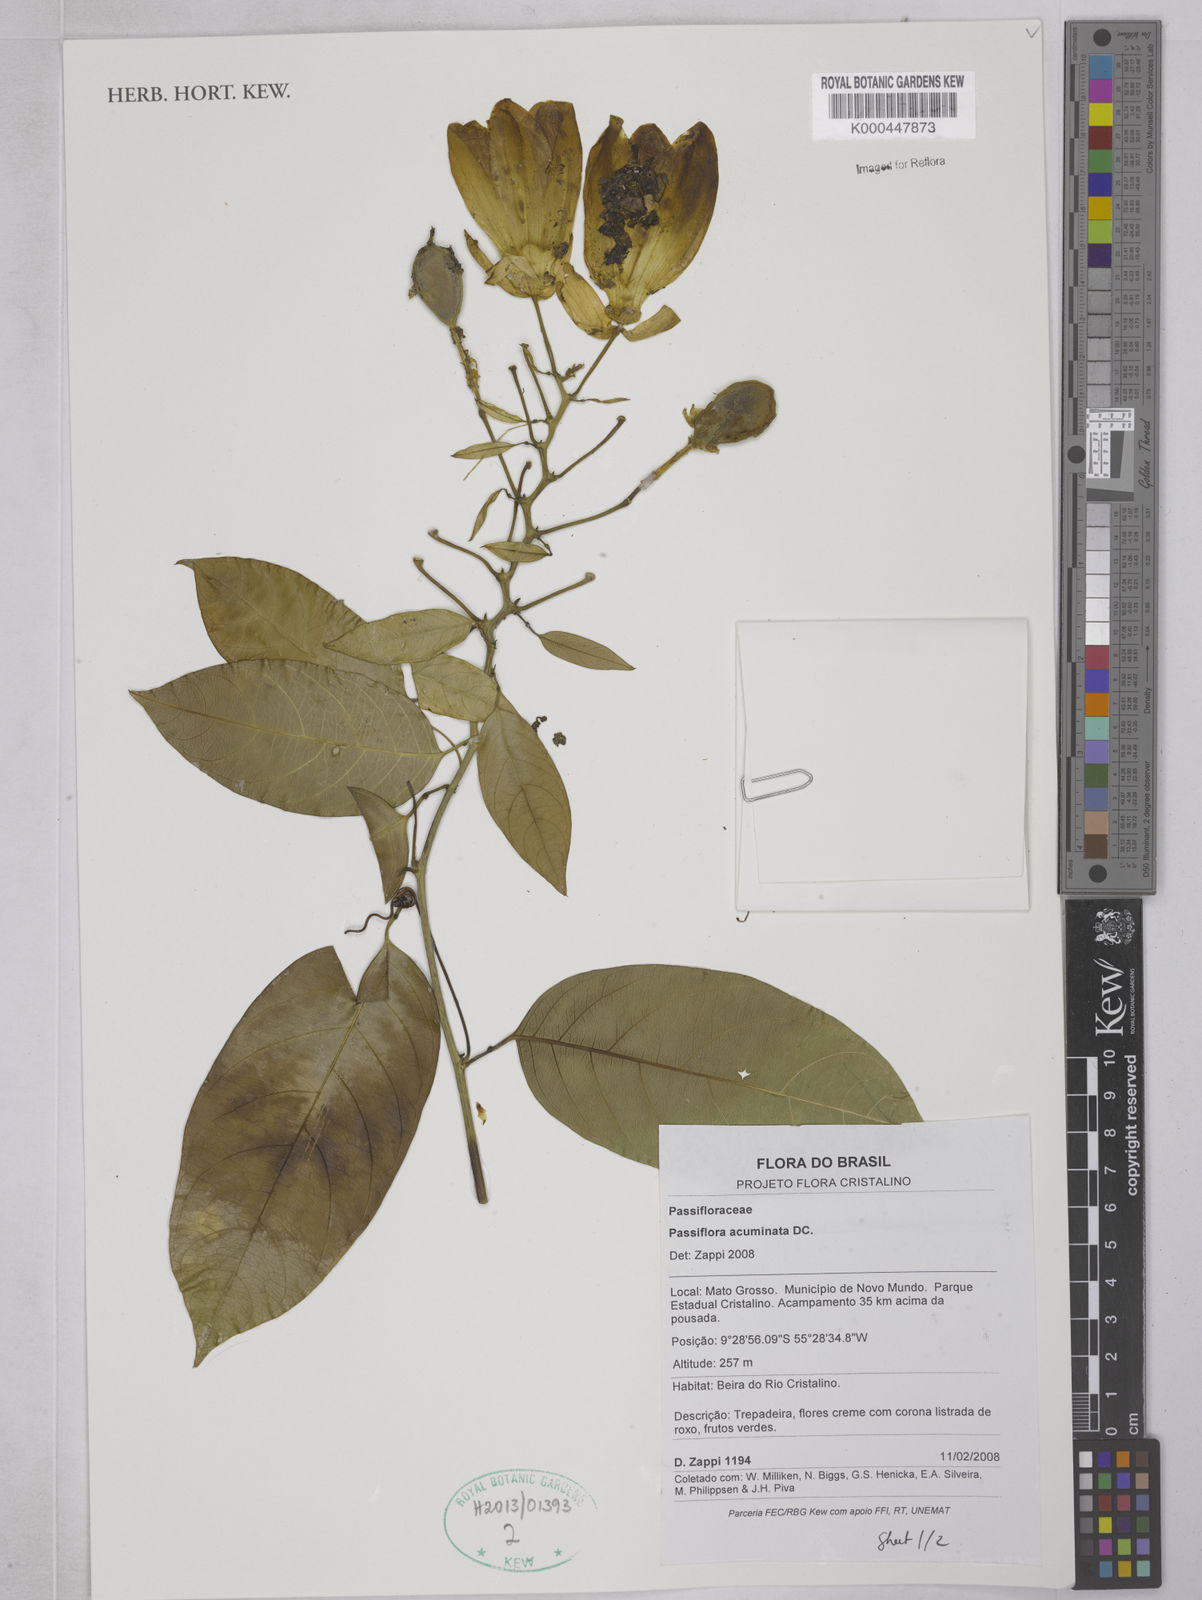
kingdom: Plantae
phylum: Tracheophyta
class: Magnoliopsida
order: Malpighiales
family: Passifloraceae
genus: Passiflora
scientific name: Passiflora acuminata
